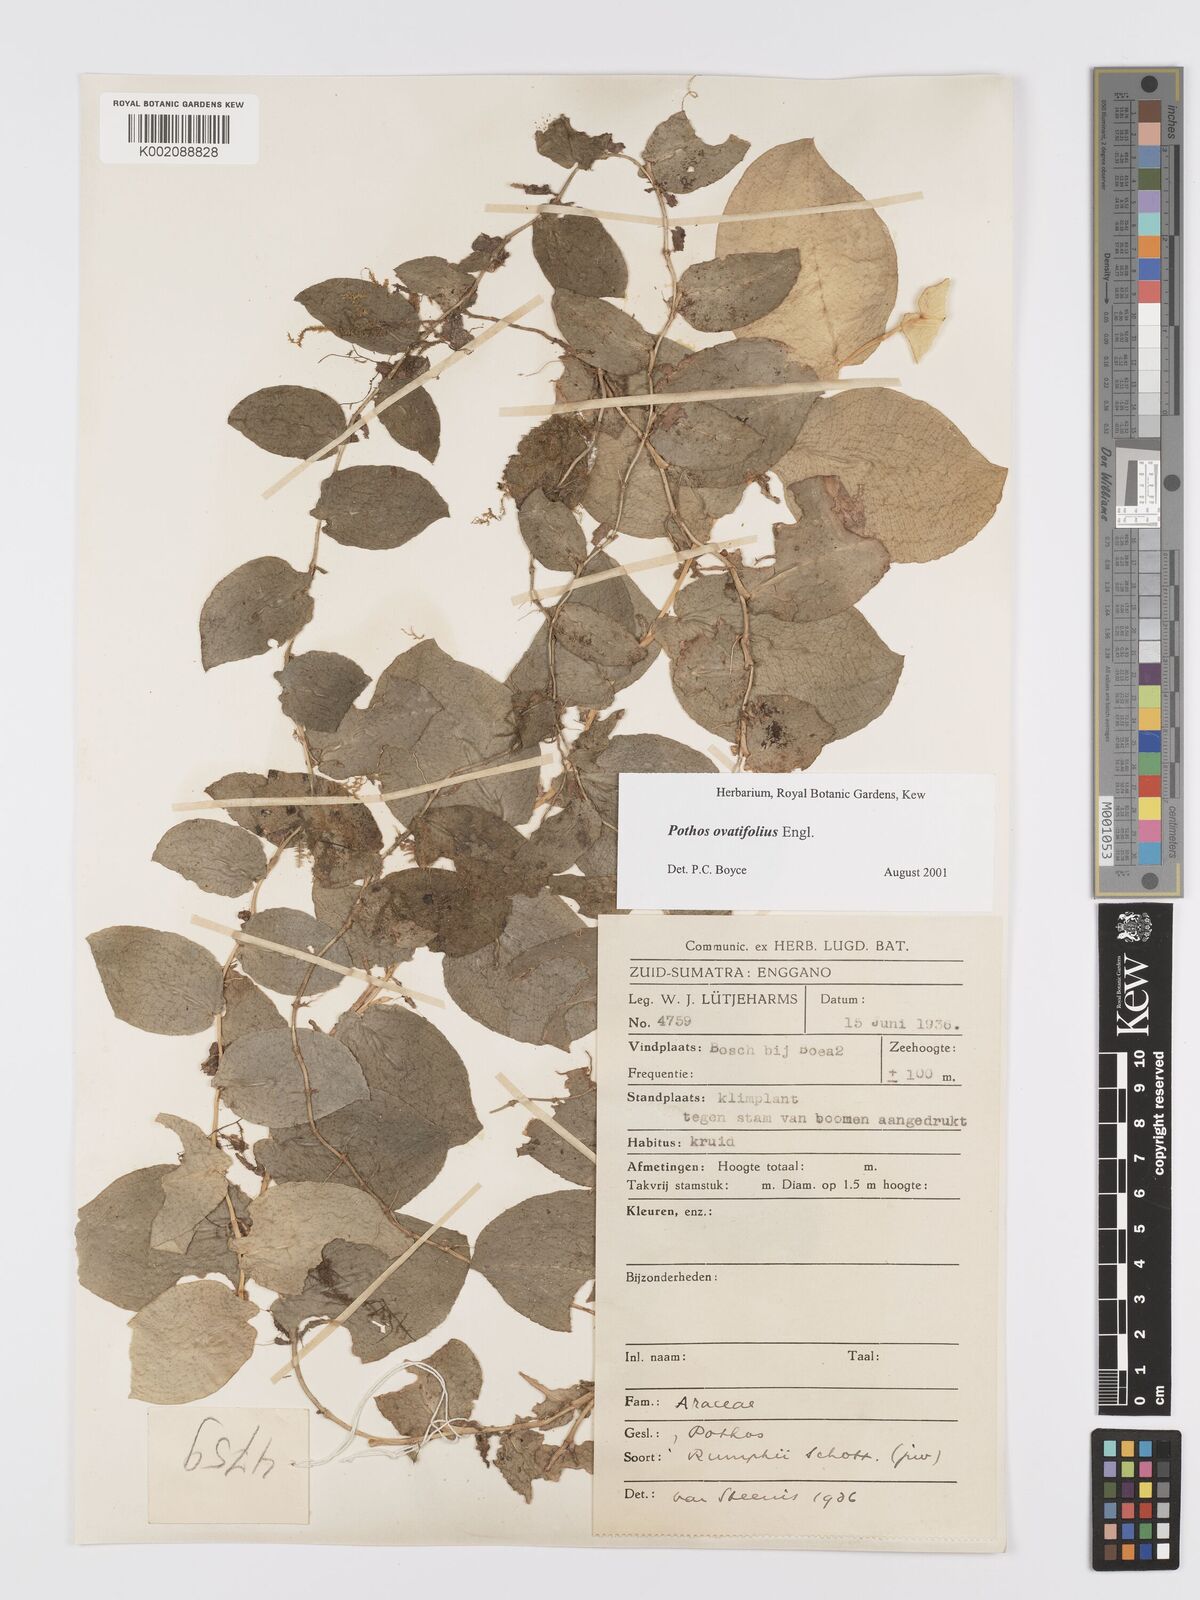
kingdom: Plantae
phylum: Tracheophyta
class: Liliopsida
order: Alismatales
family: Araceae
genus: Pothos
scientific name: Pothos ovatifolius
